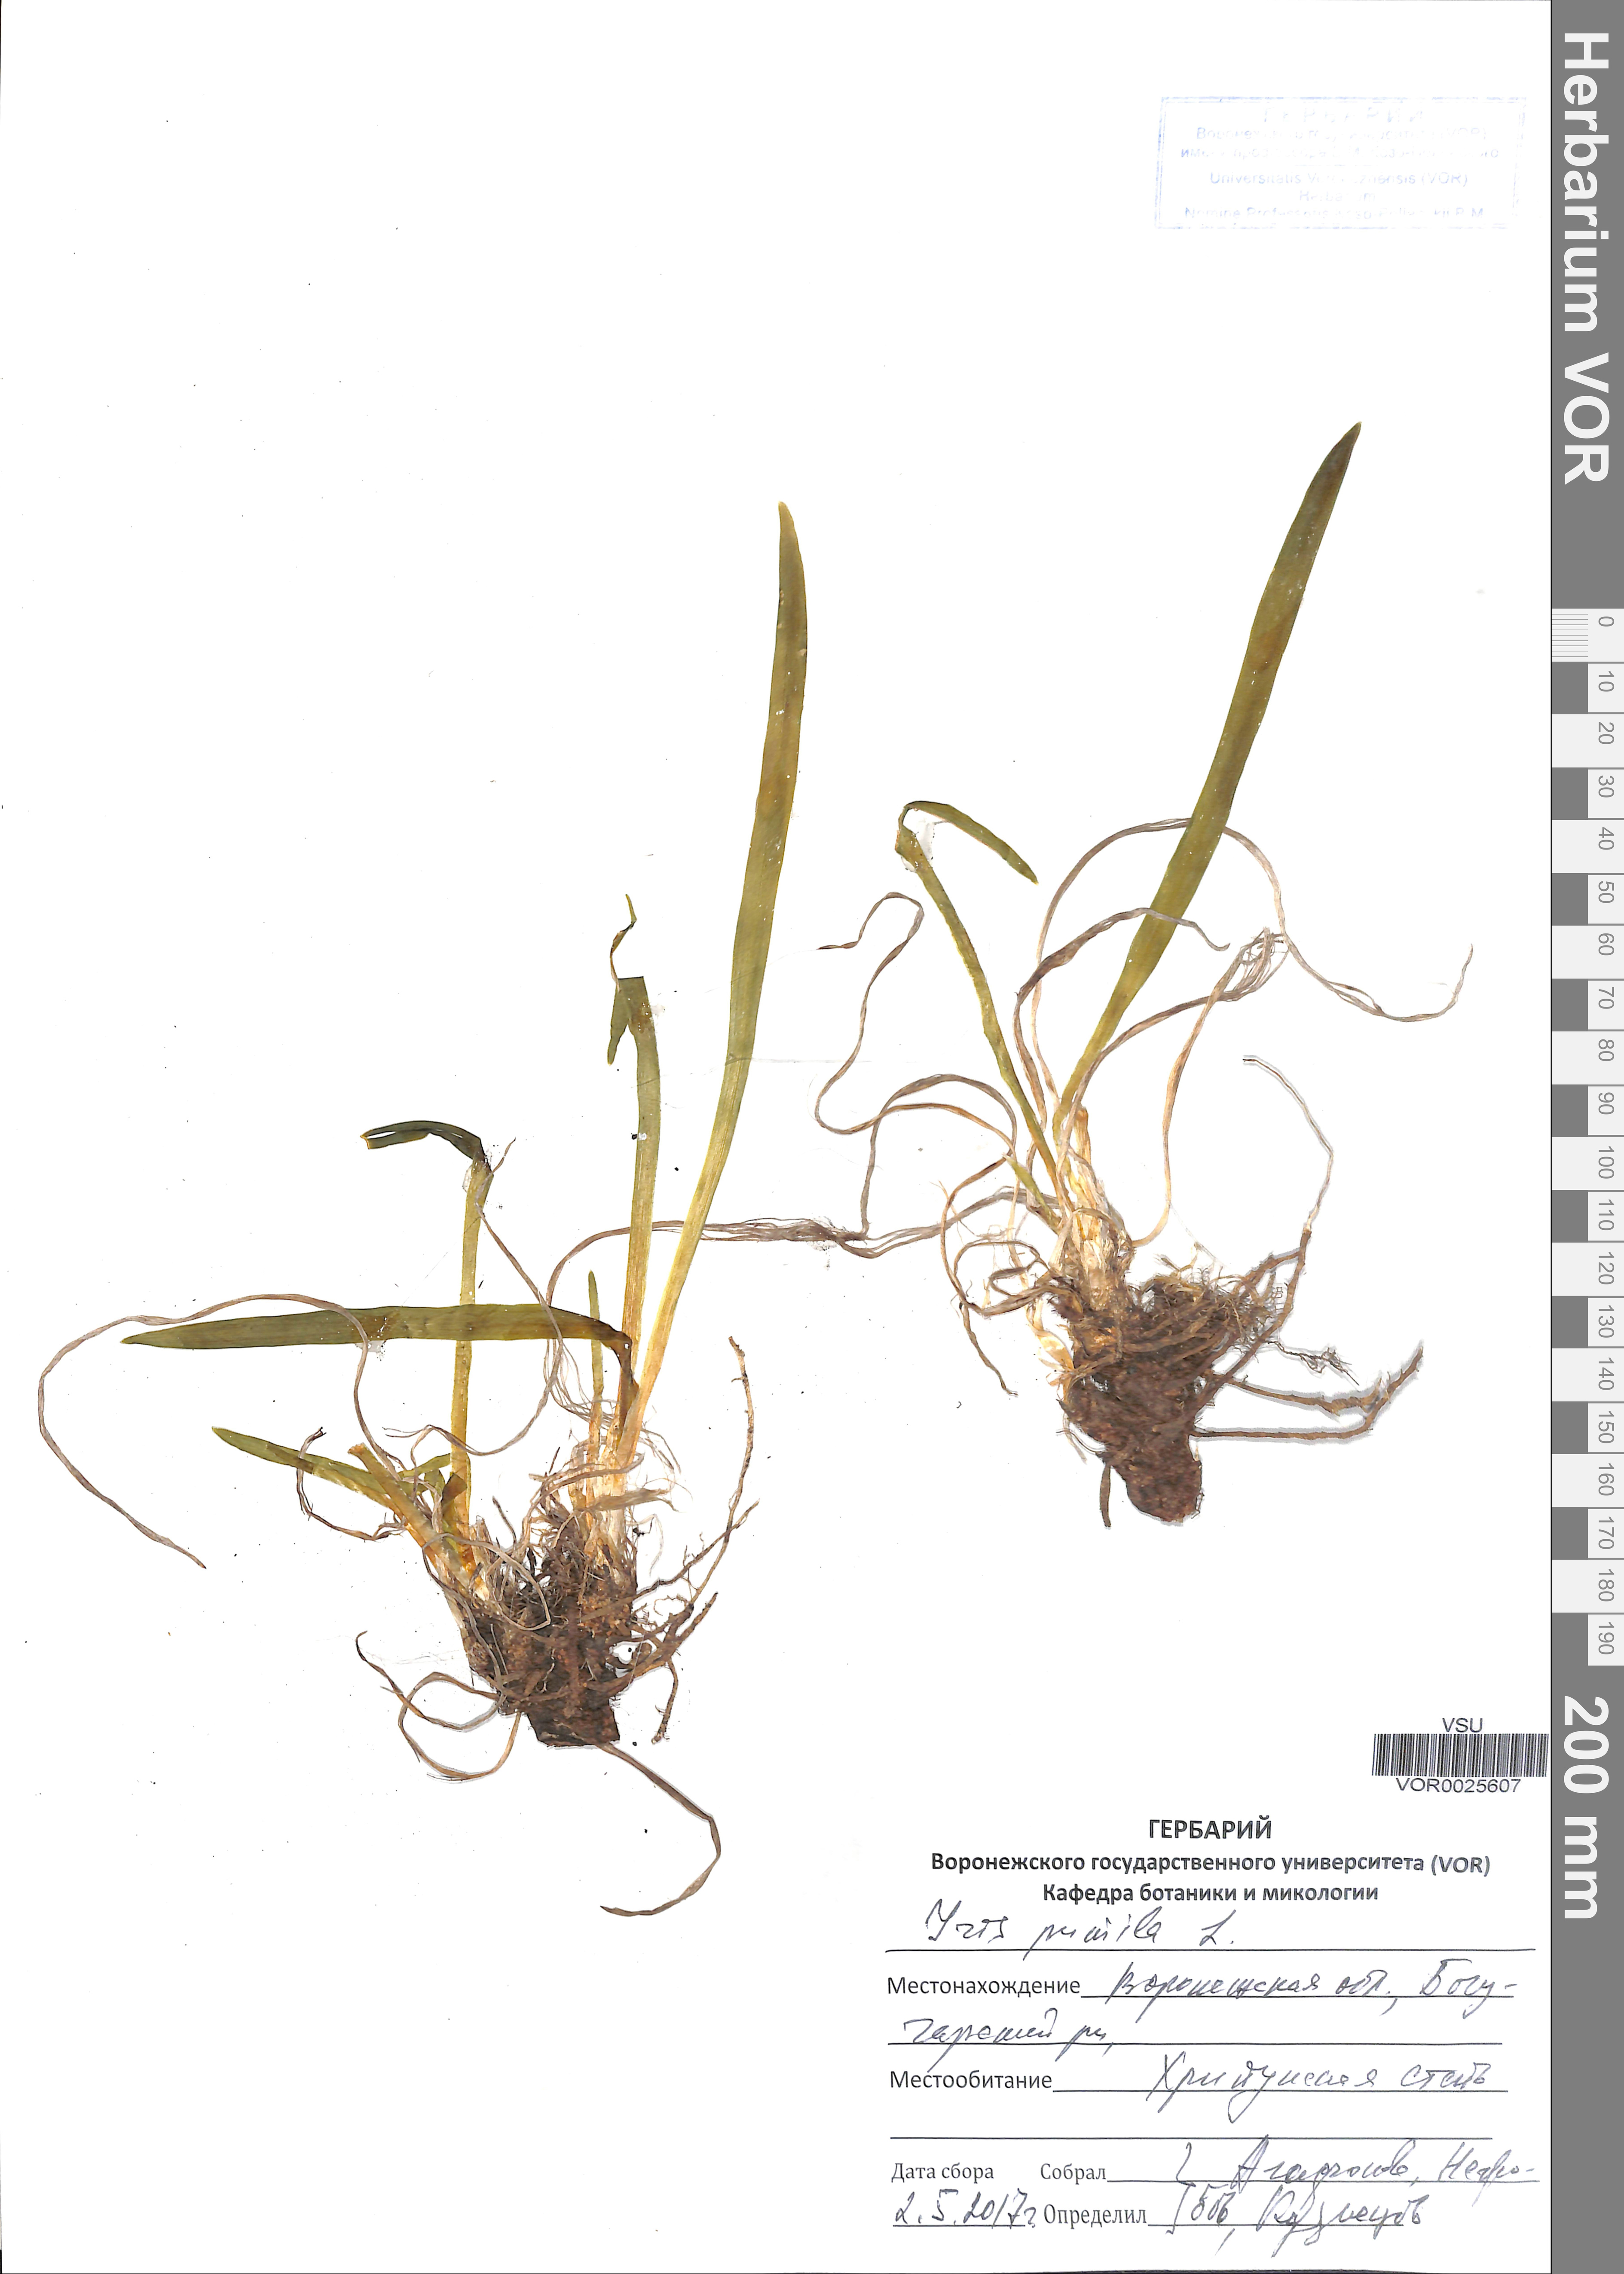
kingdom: Plantae
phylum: Tracheophyta
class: Liliopsida
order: Asparagales
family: Iridaceae
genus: Iris
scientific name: Iris pumila
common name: Dwarf iris
